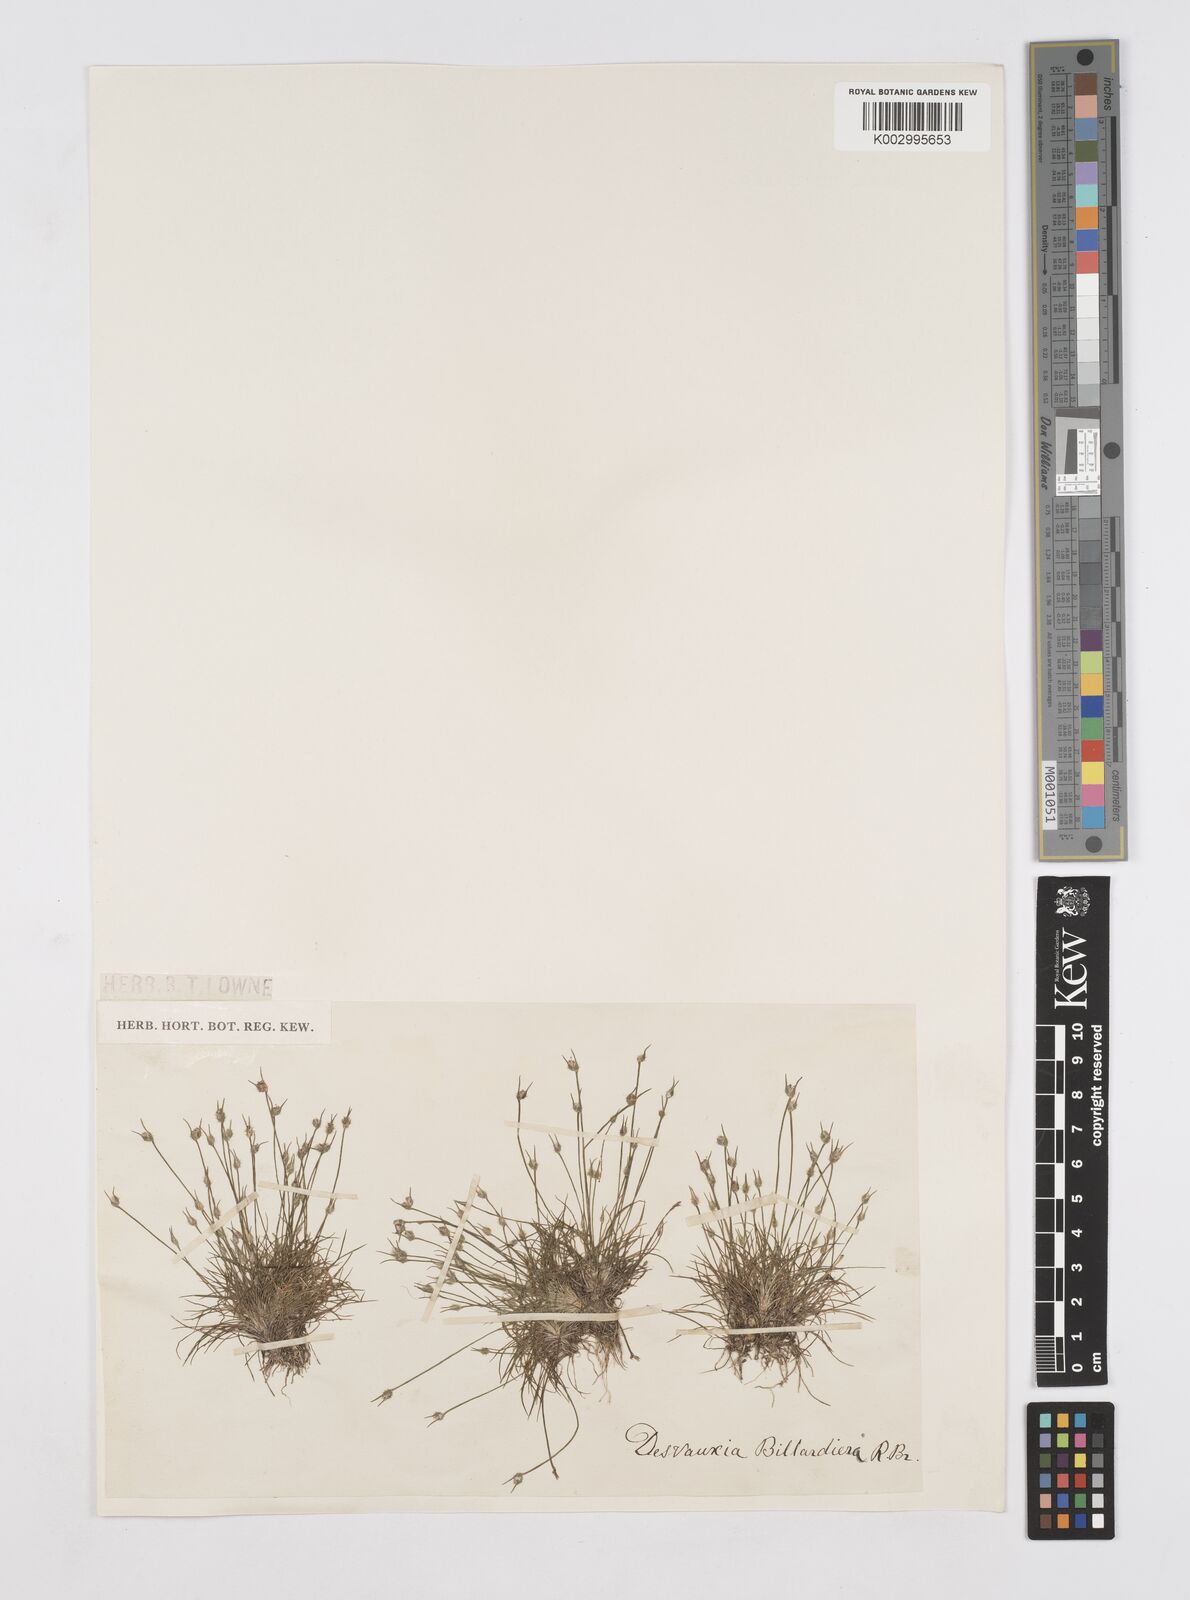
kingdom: Plantae
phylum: Tracheophyta
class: Liliopsida
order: Poales
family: Restionaceae
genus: Centrolepis
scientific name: Centrolepis fascicularis
